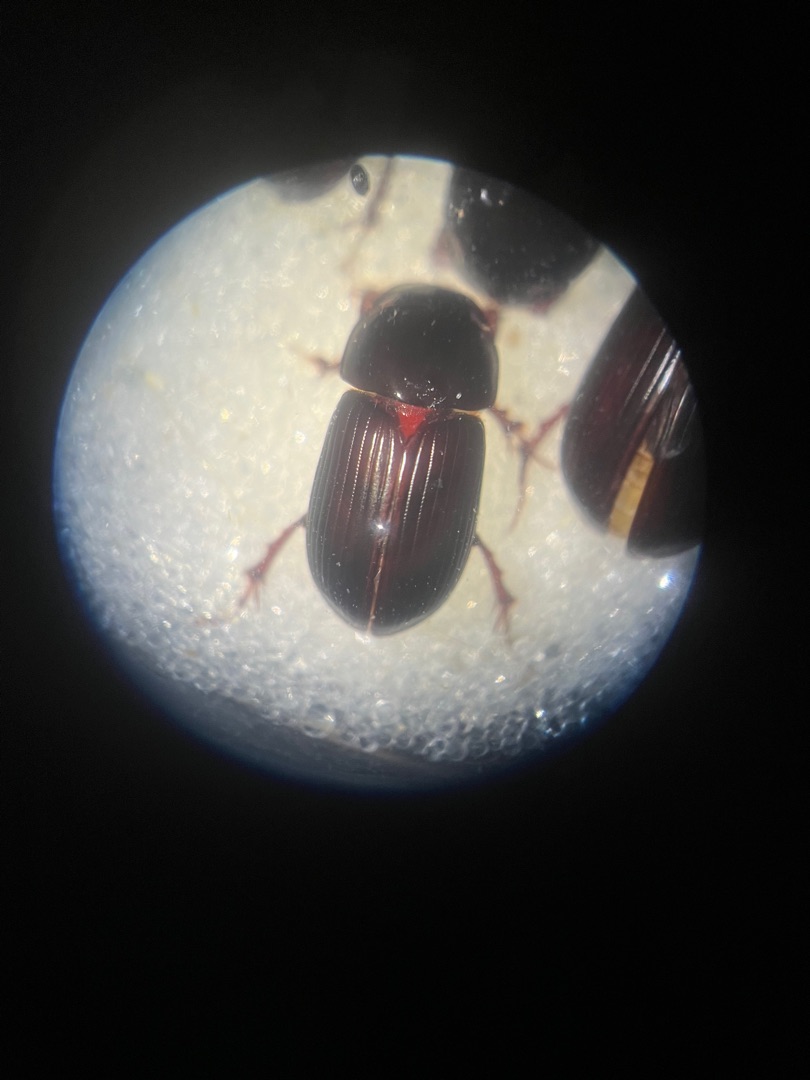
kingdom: Animalia
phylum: Arthropoda
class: Insecta
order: Coleoptera
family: Scarabaeidae
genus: Acrossus
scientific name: Acrossus rufipes
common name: Rødbenet møgbille
